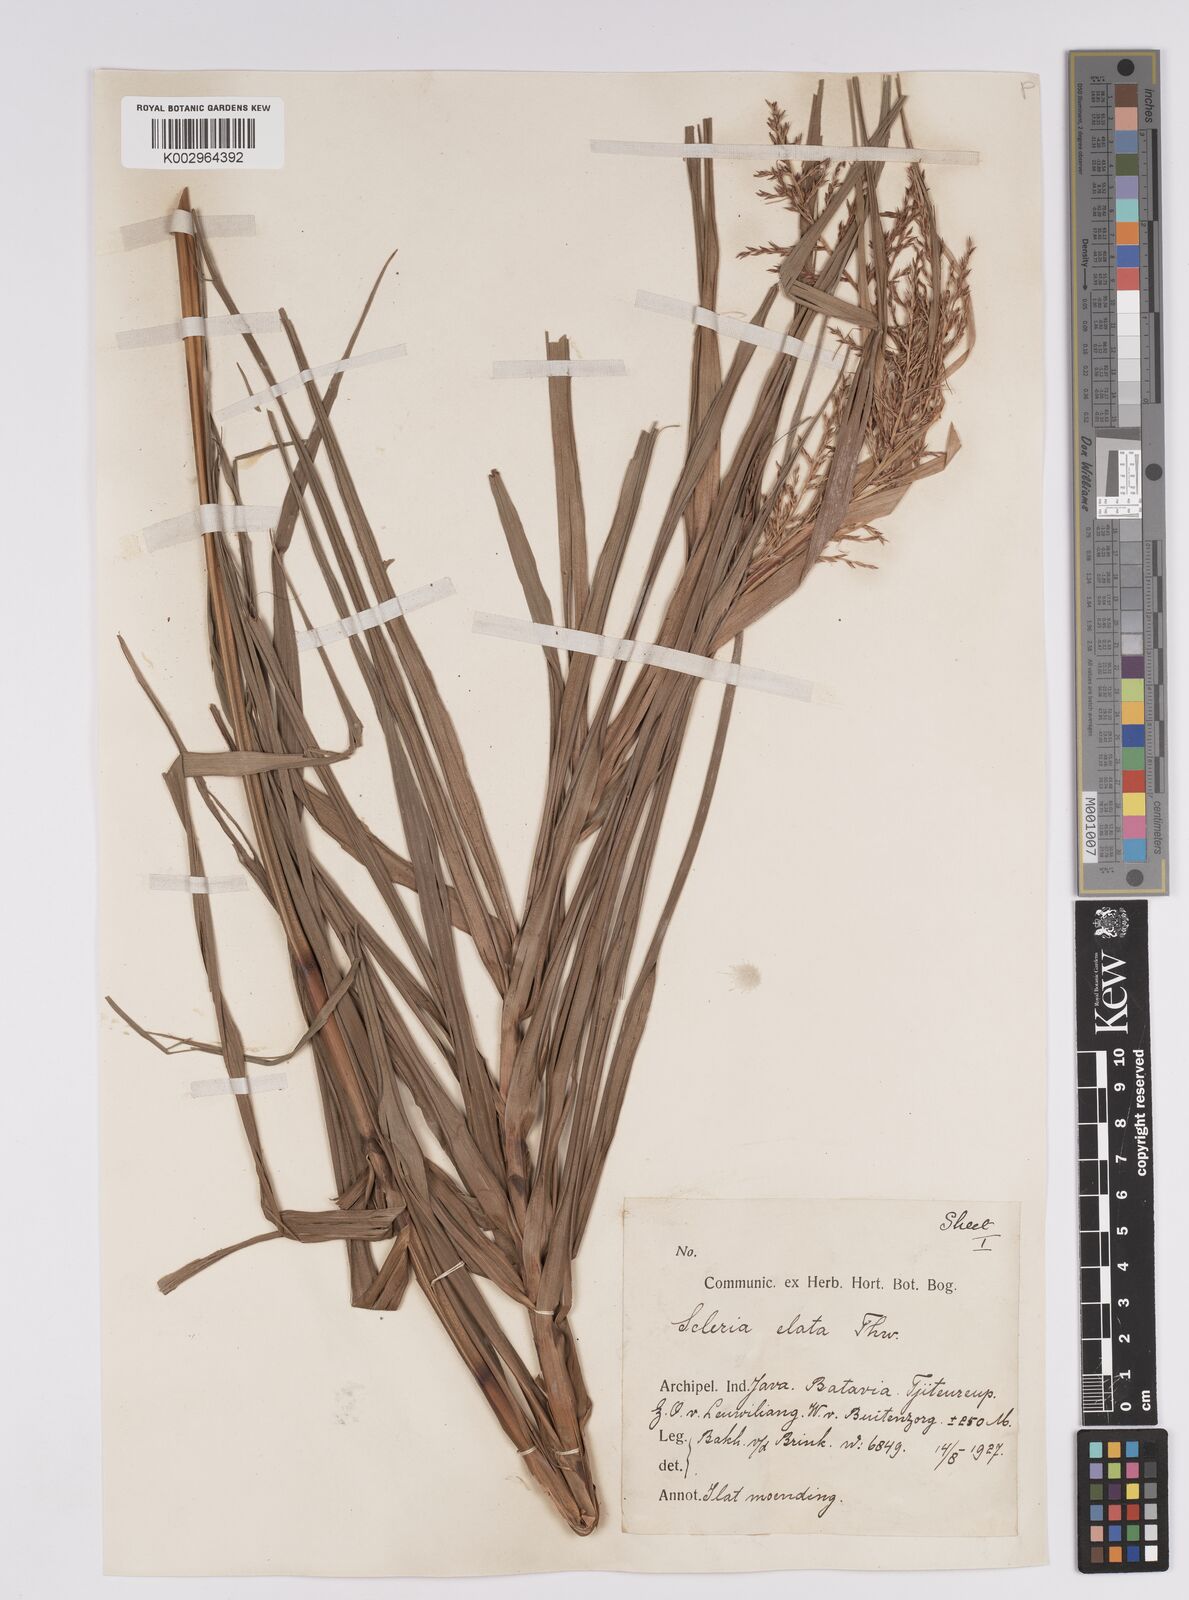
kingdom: Plantae
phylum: Tracheophyta
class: Liliopsida
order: Poales
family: Cyperaceae
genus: Scleria
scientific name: Scleria terrestris
